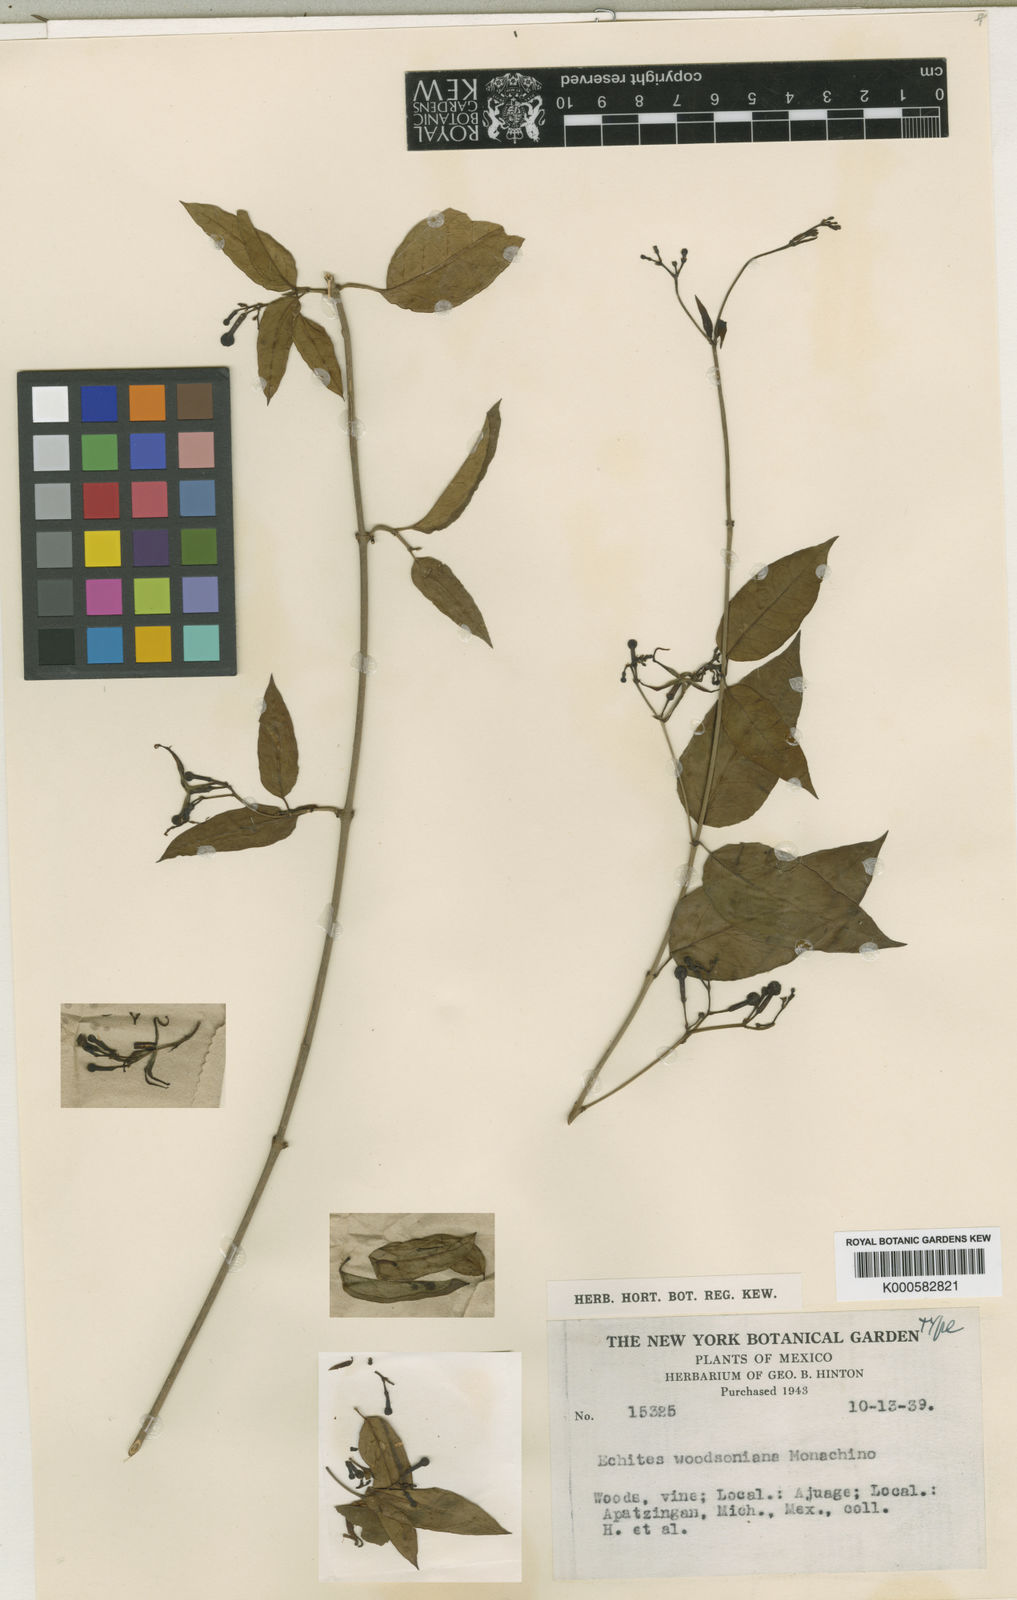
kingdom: Plantae
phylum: Tracheophyta
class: Magnoliopsida
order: Gentianales
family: Apocynaceae
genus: Echites
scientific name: Echites woodsonianus
